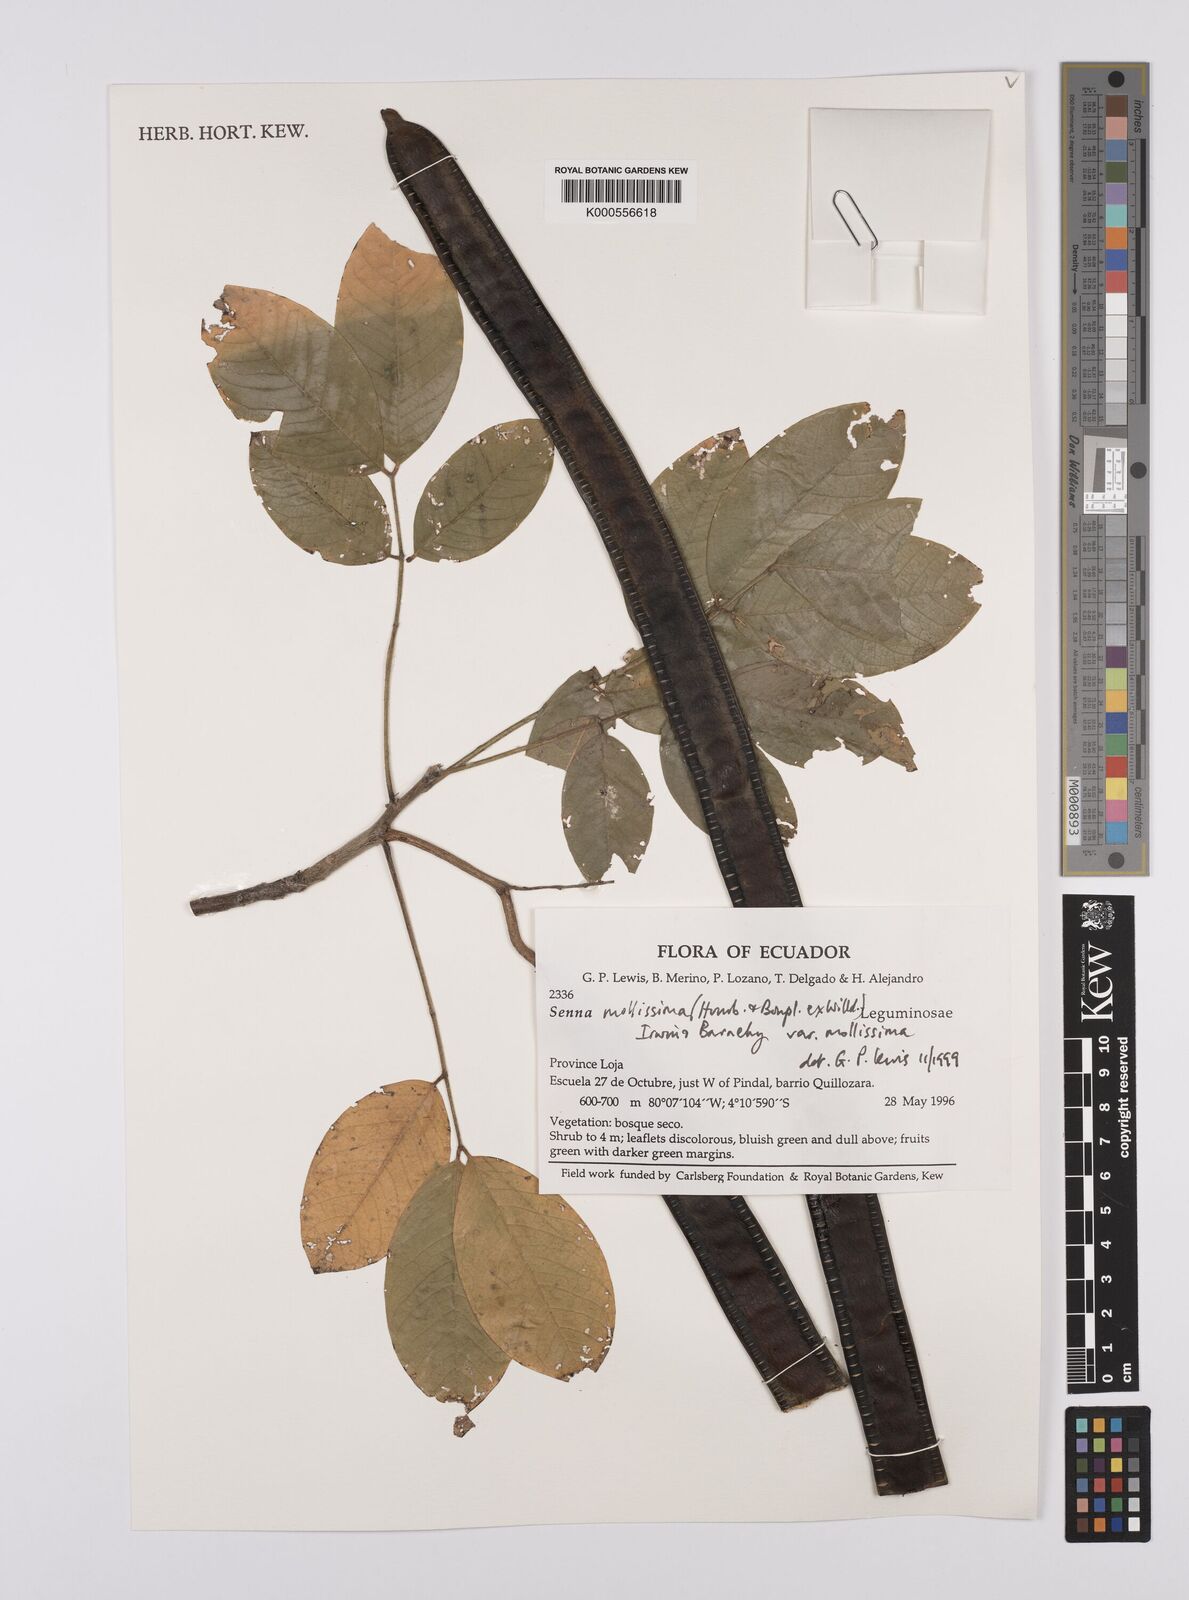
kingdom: Plantae
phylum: Tracheophyta
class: Magnoliopsida
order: Fabales
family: Fabaceae
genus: Senna
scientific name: Senna mollissima
